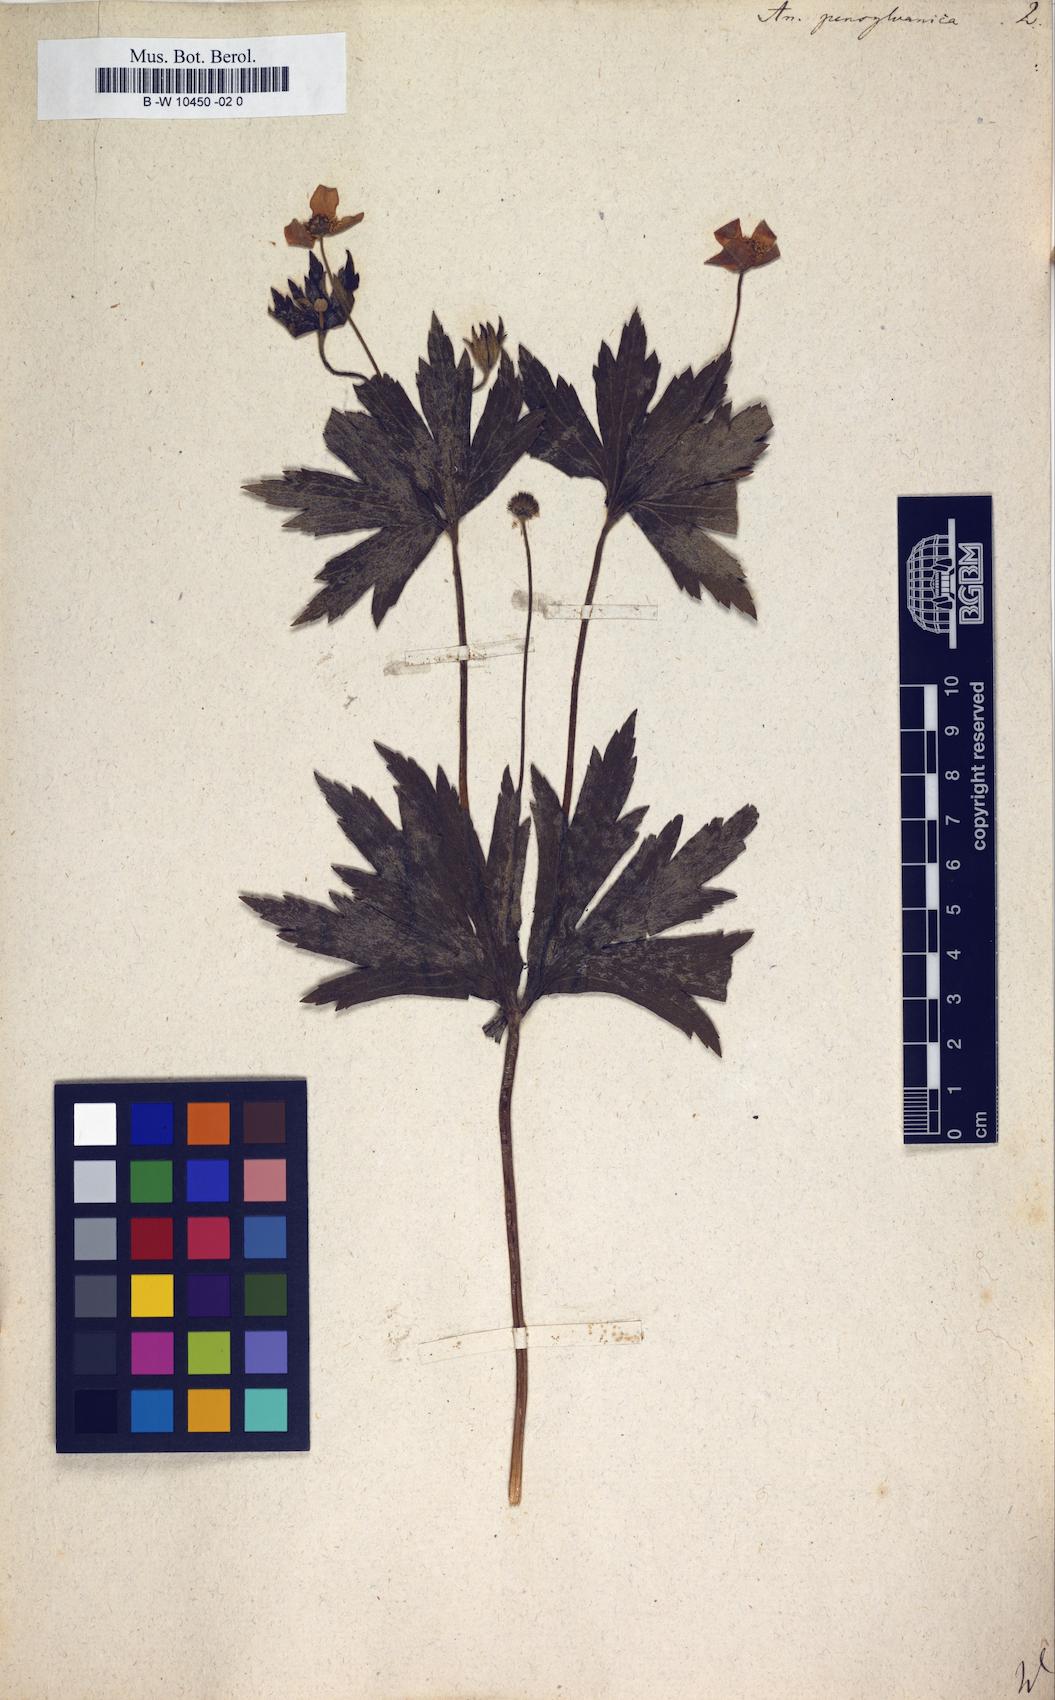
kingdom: Plantae
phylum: Tracheophyta
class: Magnoliopsida
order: Ranunculales
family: Ranunculaceae
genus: Anemonastrum
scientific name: Anemonastrum dichotomum
